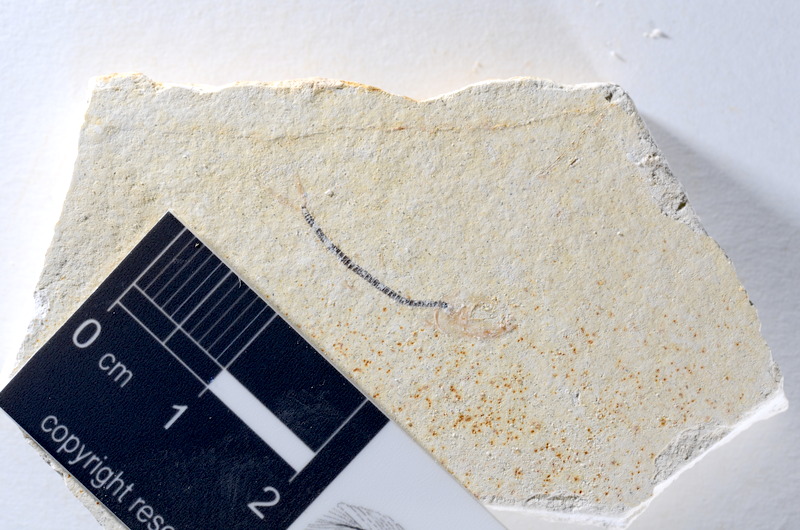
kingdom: Animalia
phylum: Chordata
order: Salmoniformes
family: Orthogonikleithridae
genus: Orthogonikleithrus
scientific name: Orthogonikleithrus hoelli
